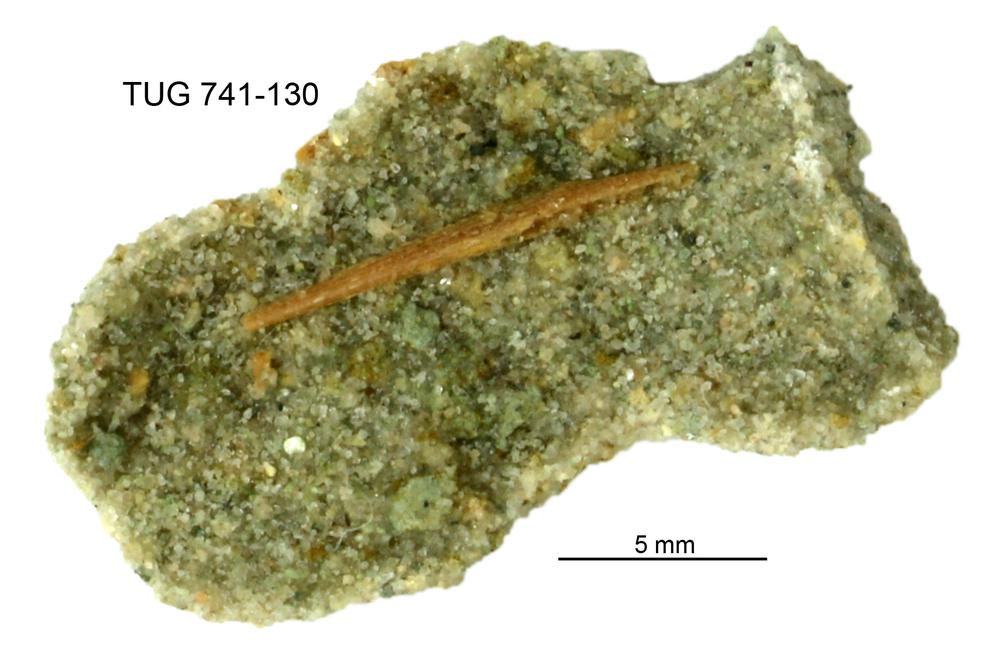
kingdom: Animalia
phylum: Chordata
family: Acanthodidae
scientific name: Acanthodidae
